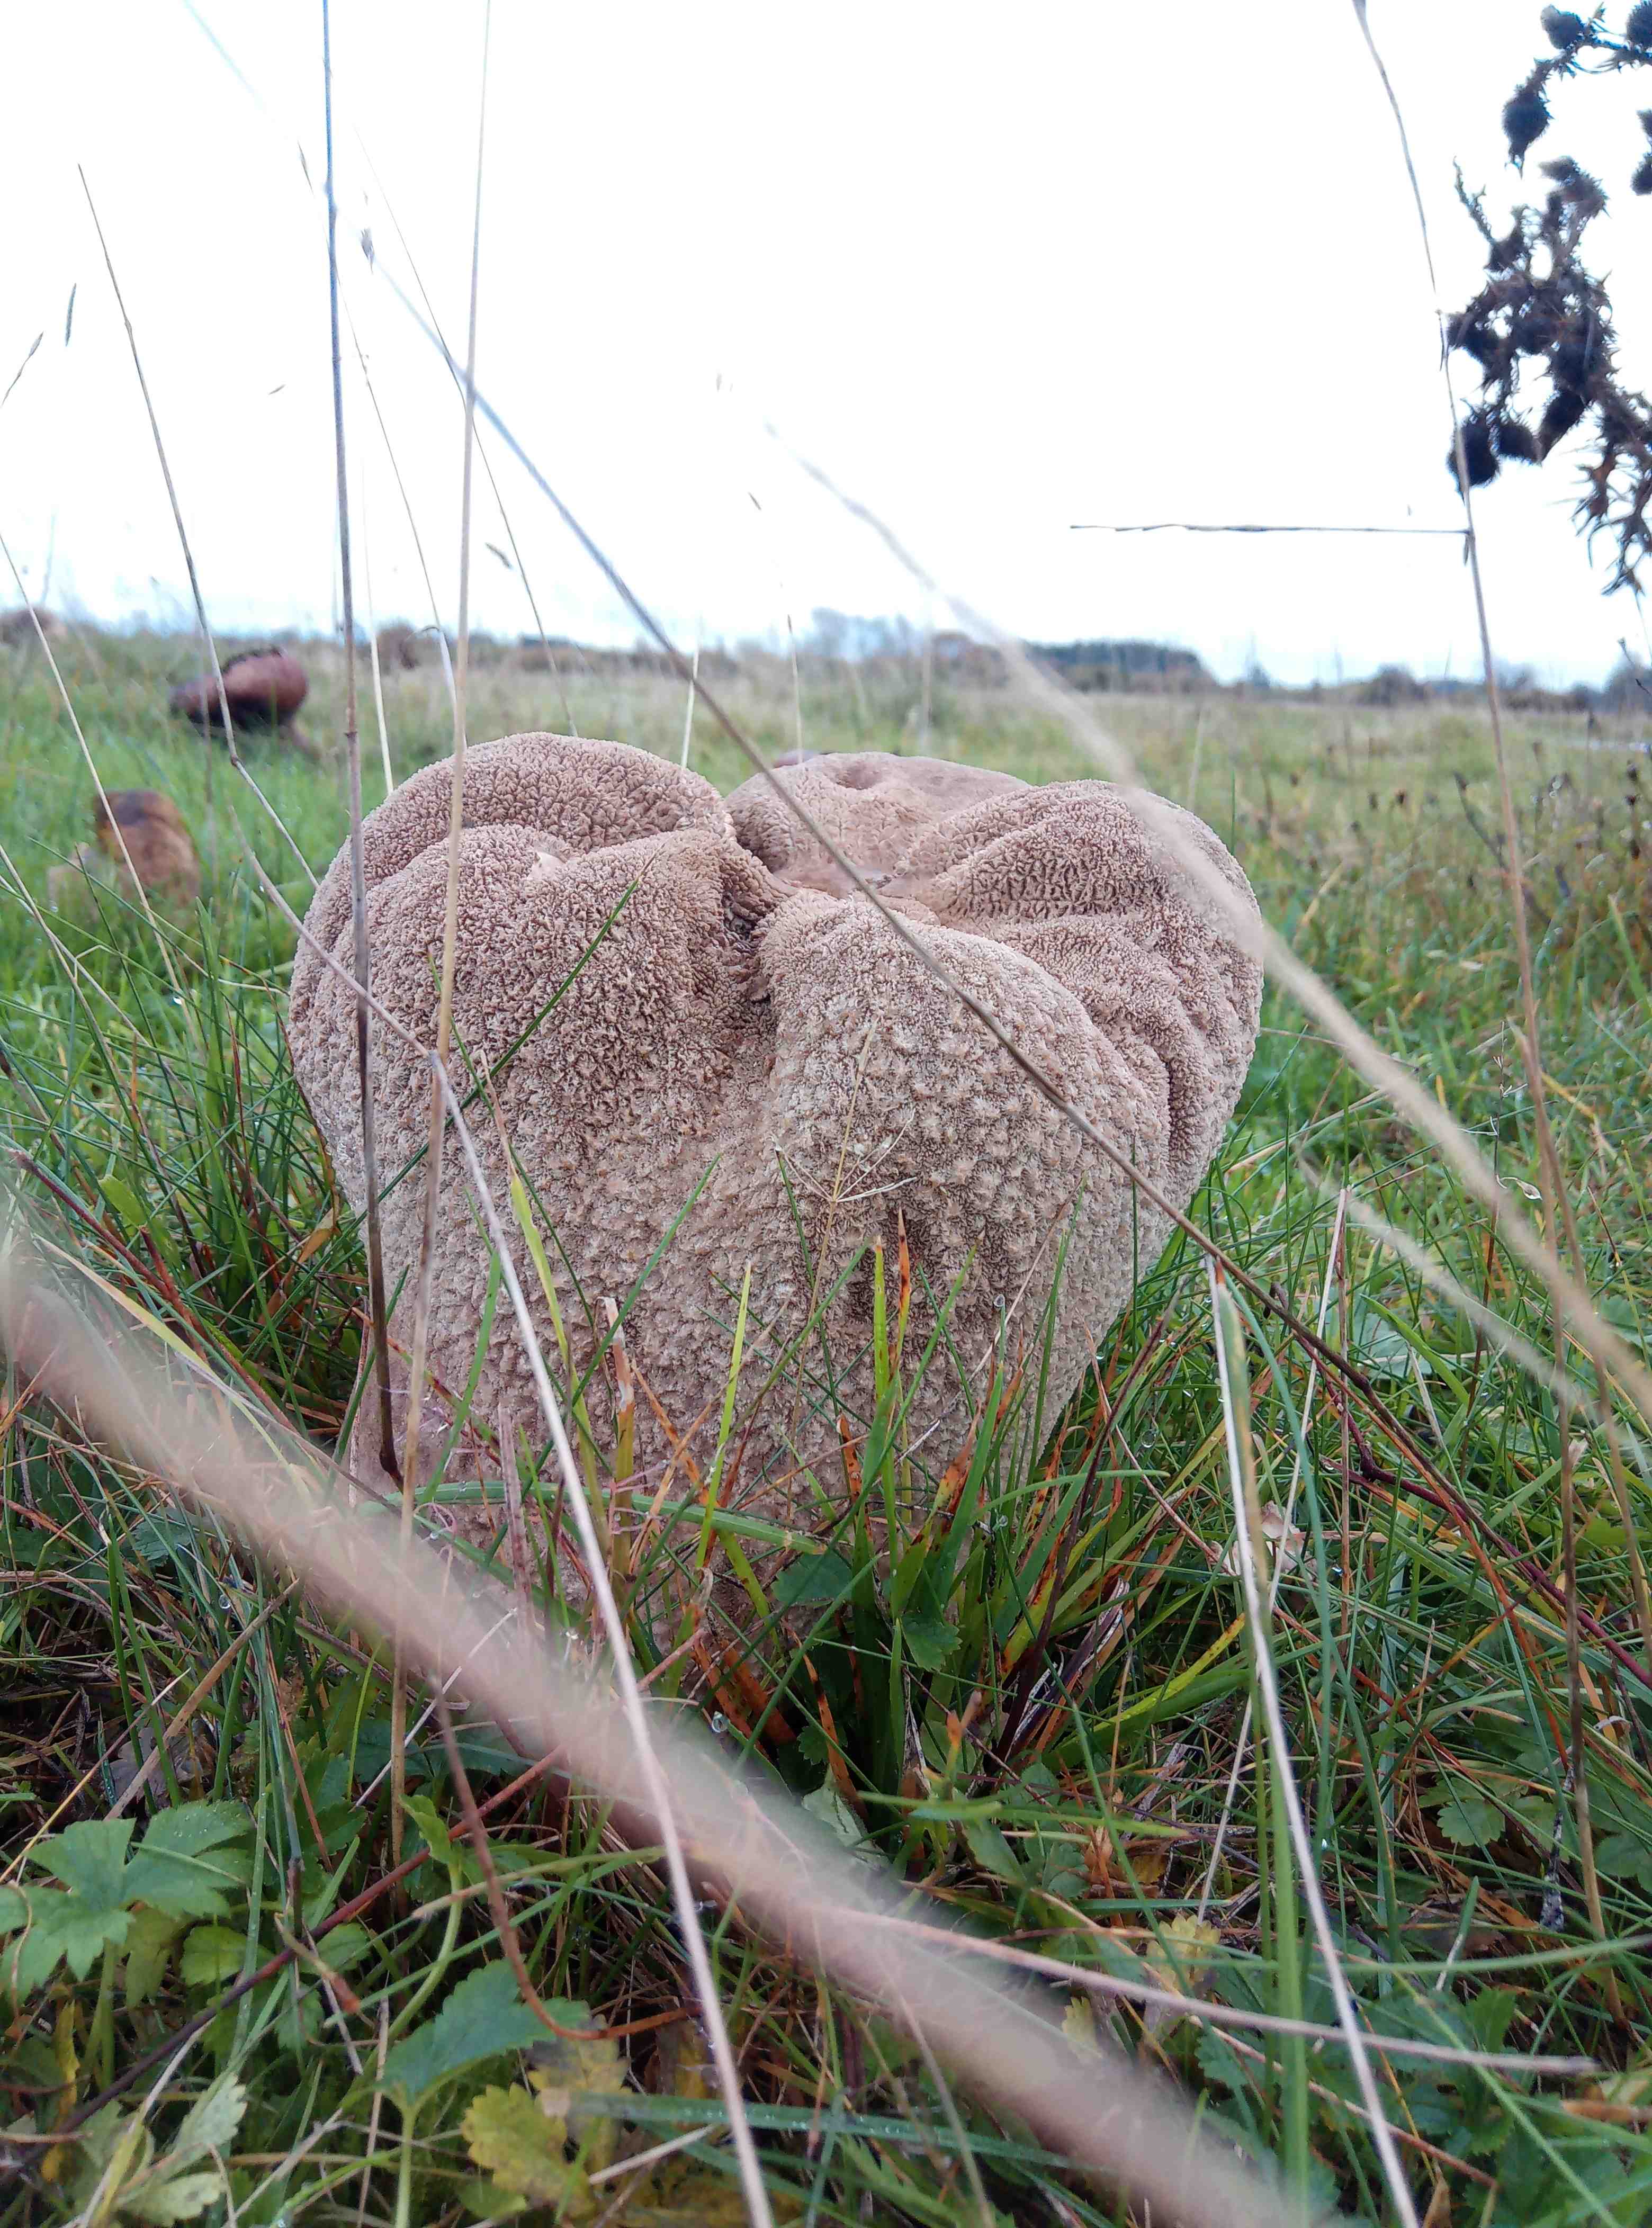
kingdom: Fungi
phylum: Basidiomycota
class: Agaricomycetes
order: Agaricales
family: Lycoperdaceae
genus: Bovistella
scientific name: Bovistella utriformis
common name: skællet støvbold
